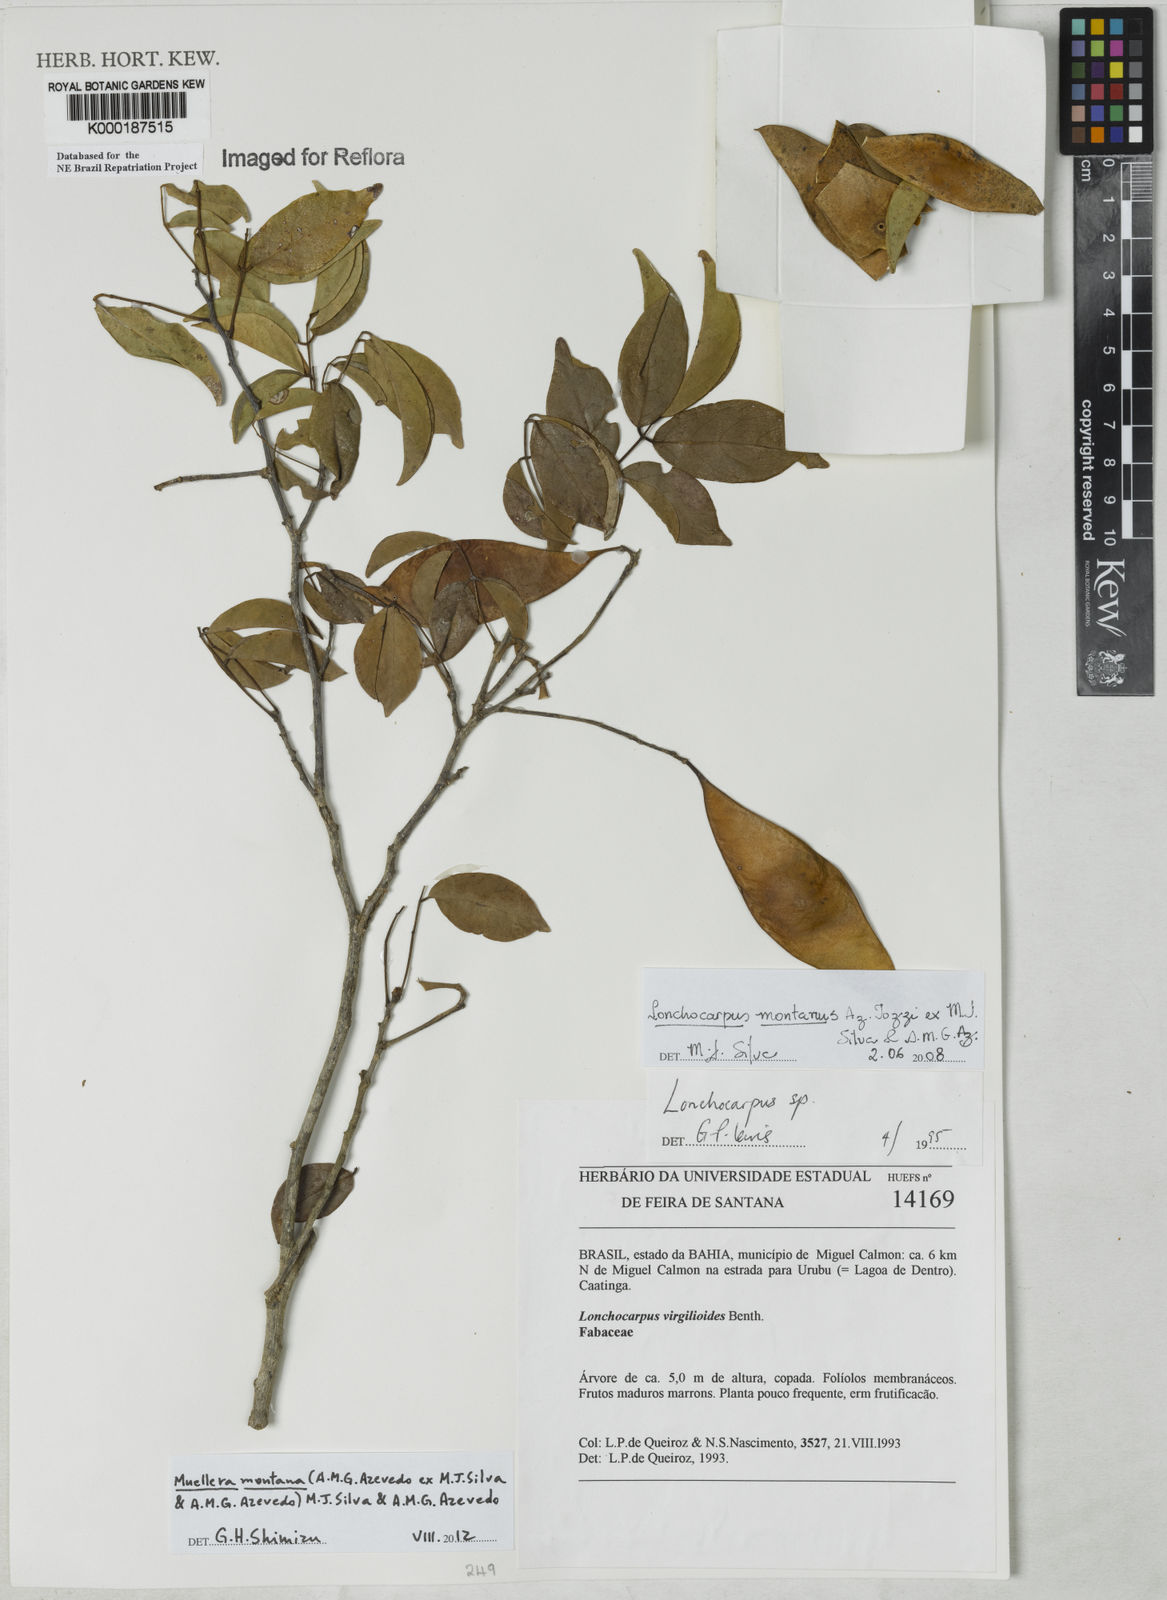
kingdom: Plantae
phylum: Tracheophyta
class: Magnoliopsida
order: Fabales
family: Fabaceae
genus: Muellera
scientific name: Muellera virgilioides
